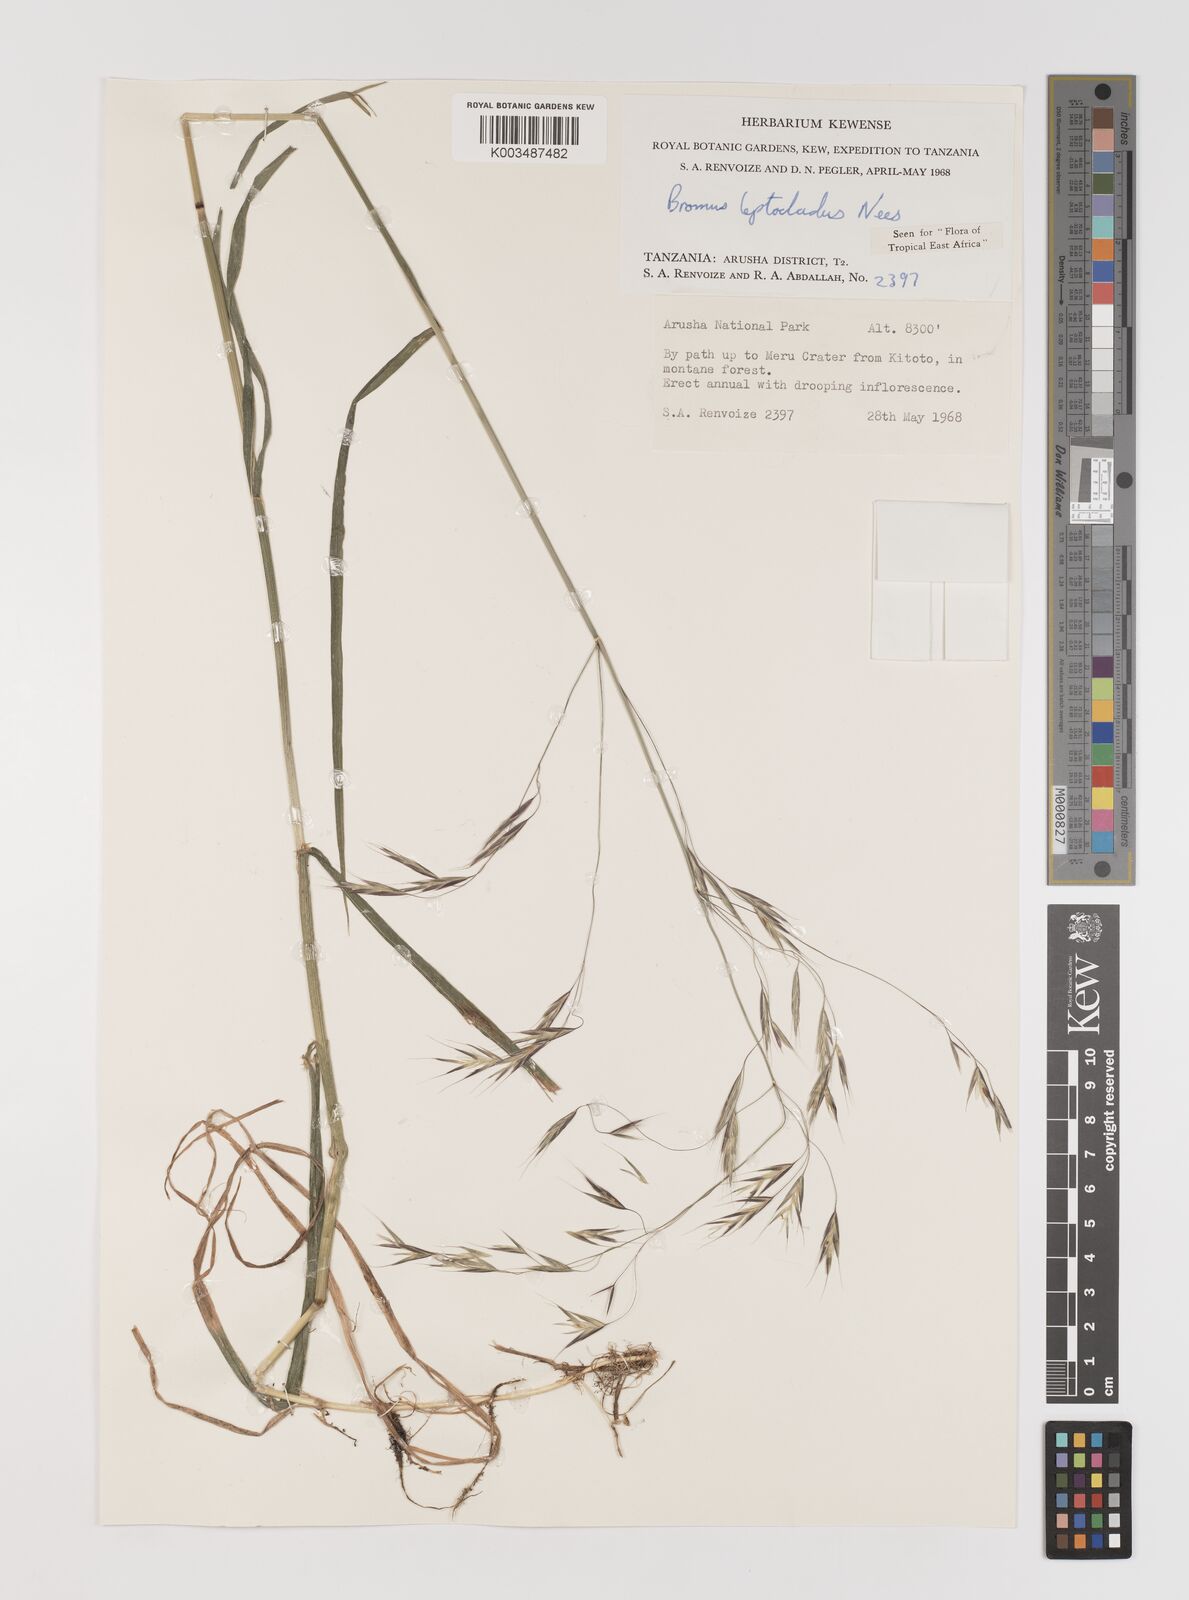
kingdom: Plantae
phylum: Tracheophyta
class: Liliopsida
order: Poales
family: Poaceae
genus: Bromus
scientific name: Bromus leptoclados
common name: Mountain bromegrass
